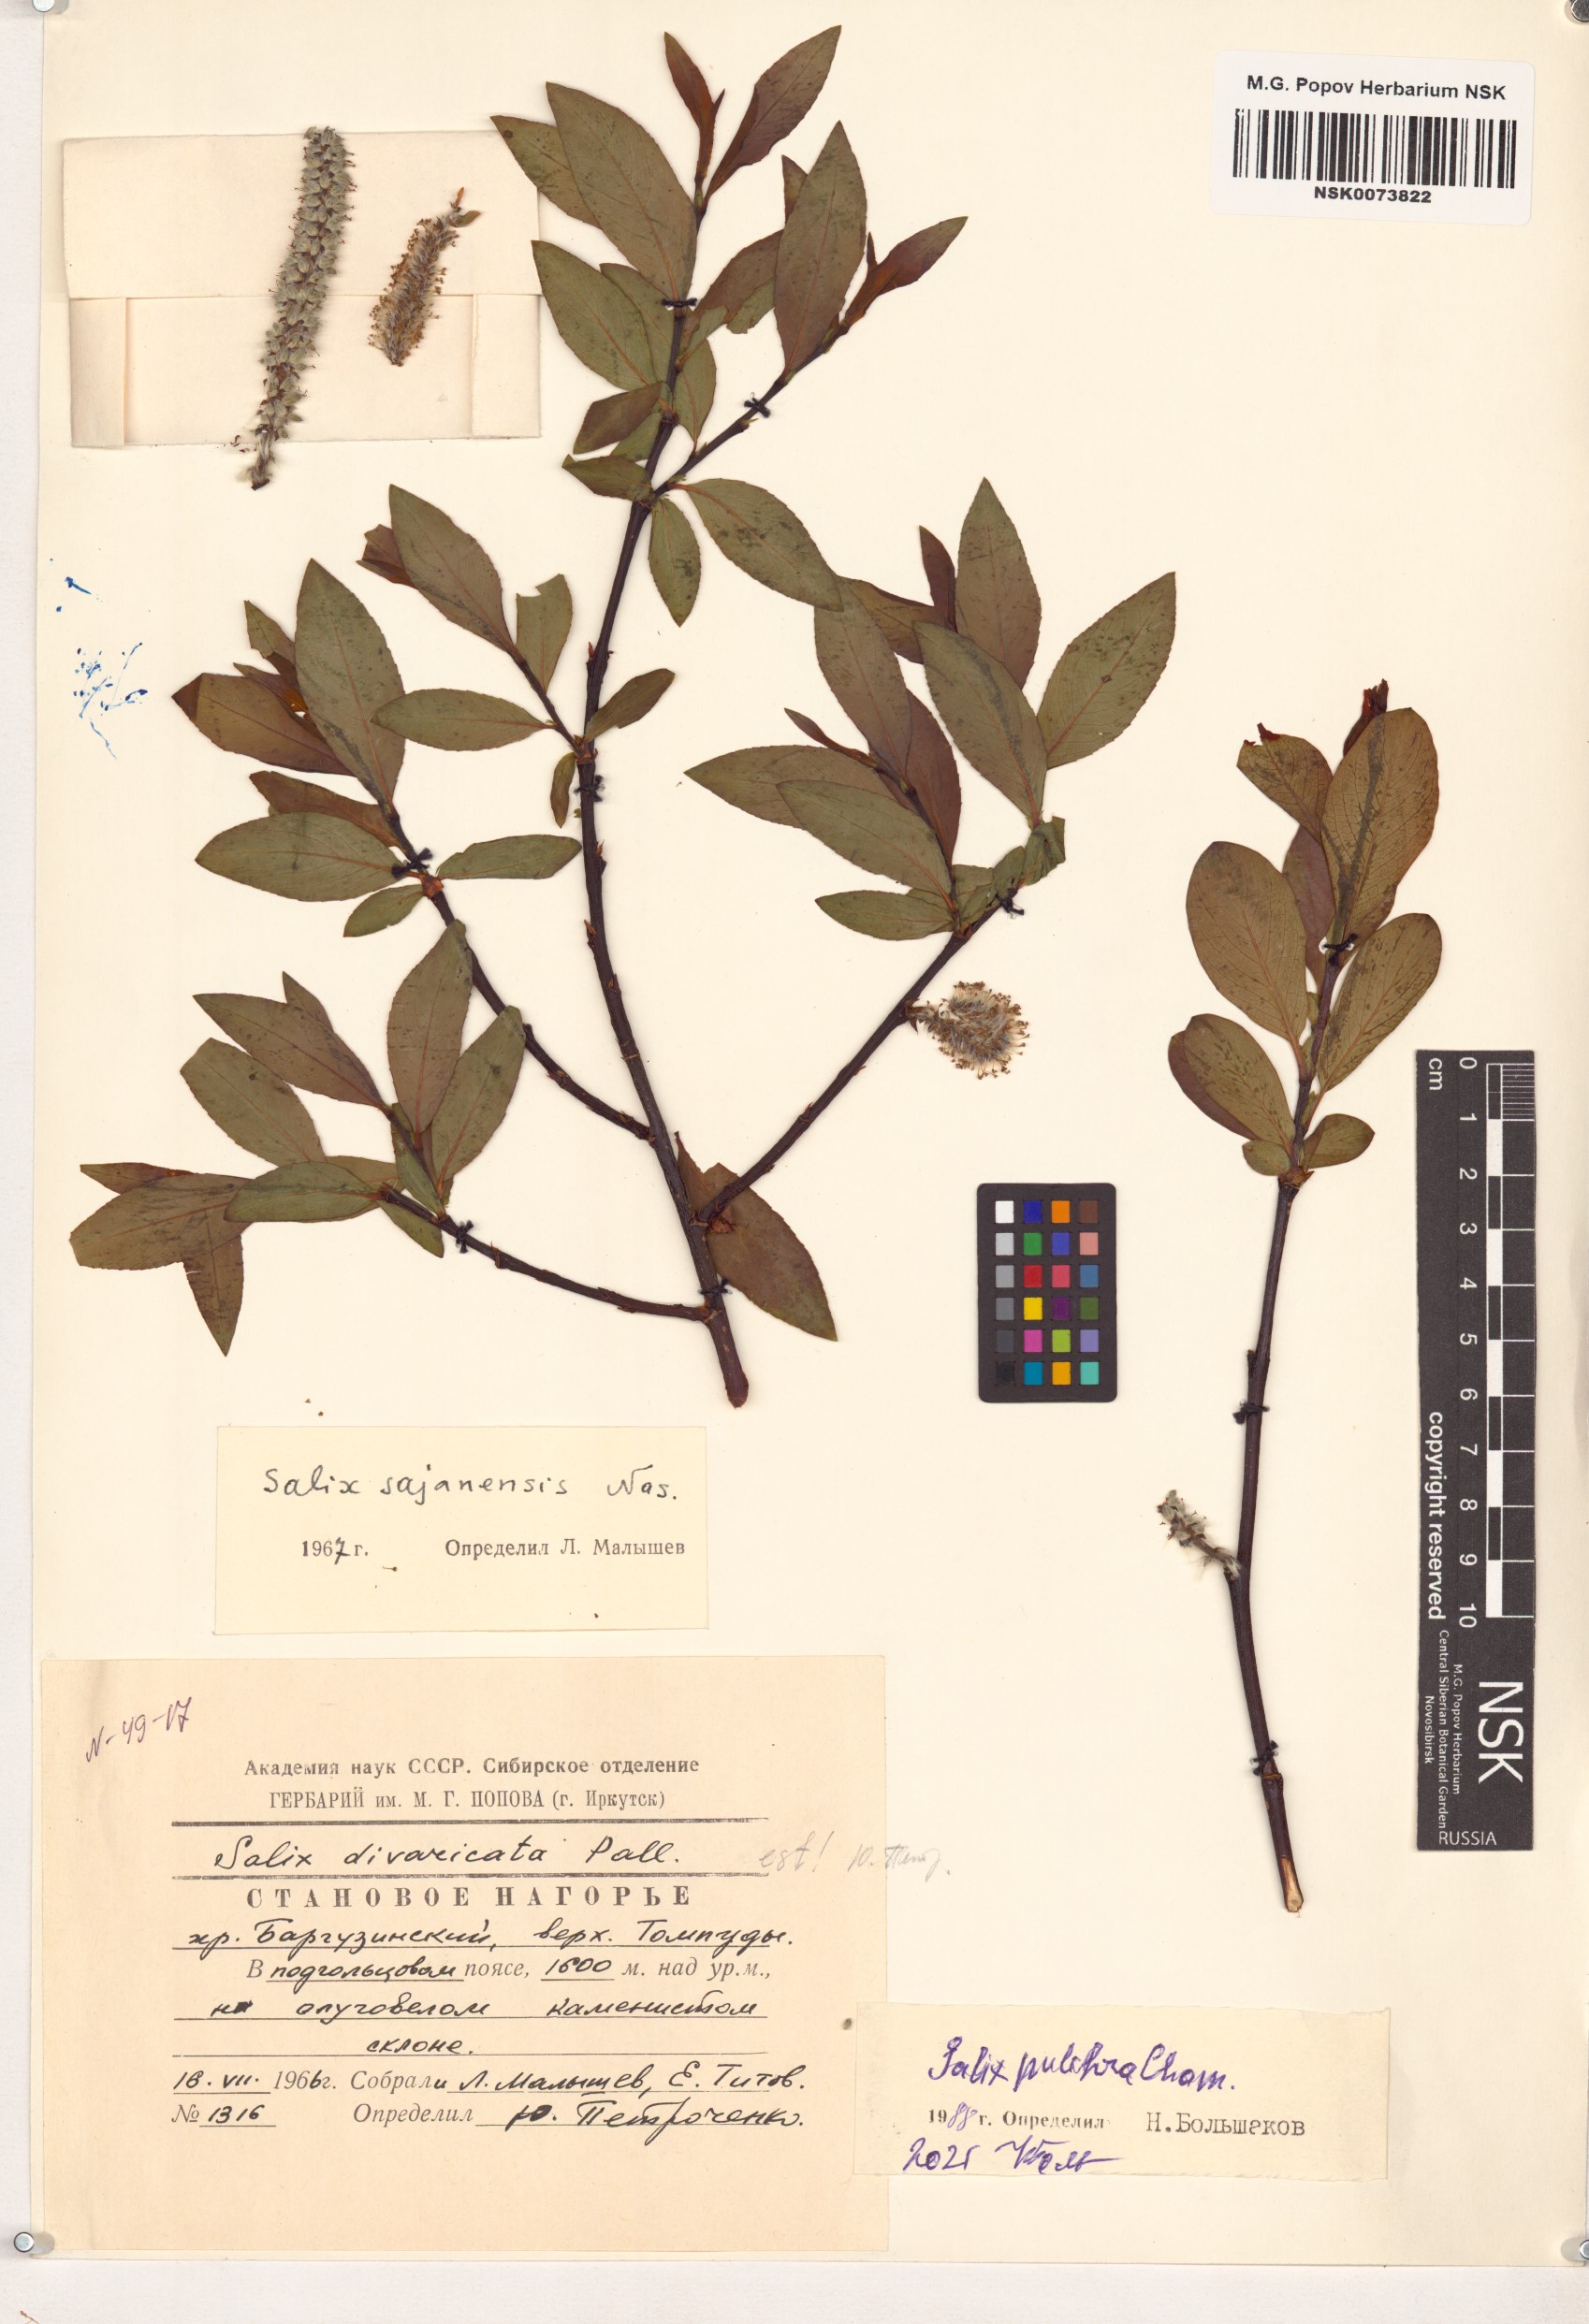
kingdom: Plantae
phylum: Tracheophyta
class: Magnoliopsida
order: Malpighiales
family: Salicaceae
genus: Salix
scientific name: Salix pulchra
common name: Diamond-leaved willow
